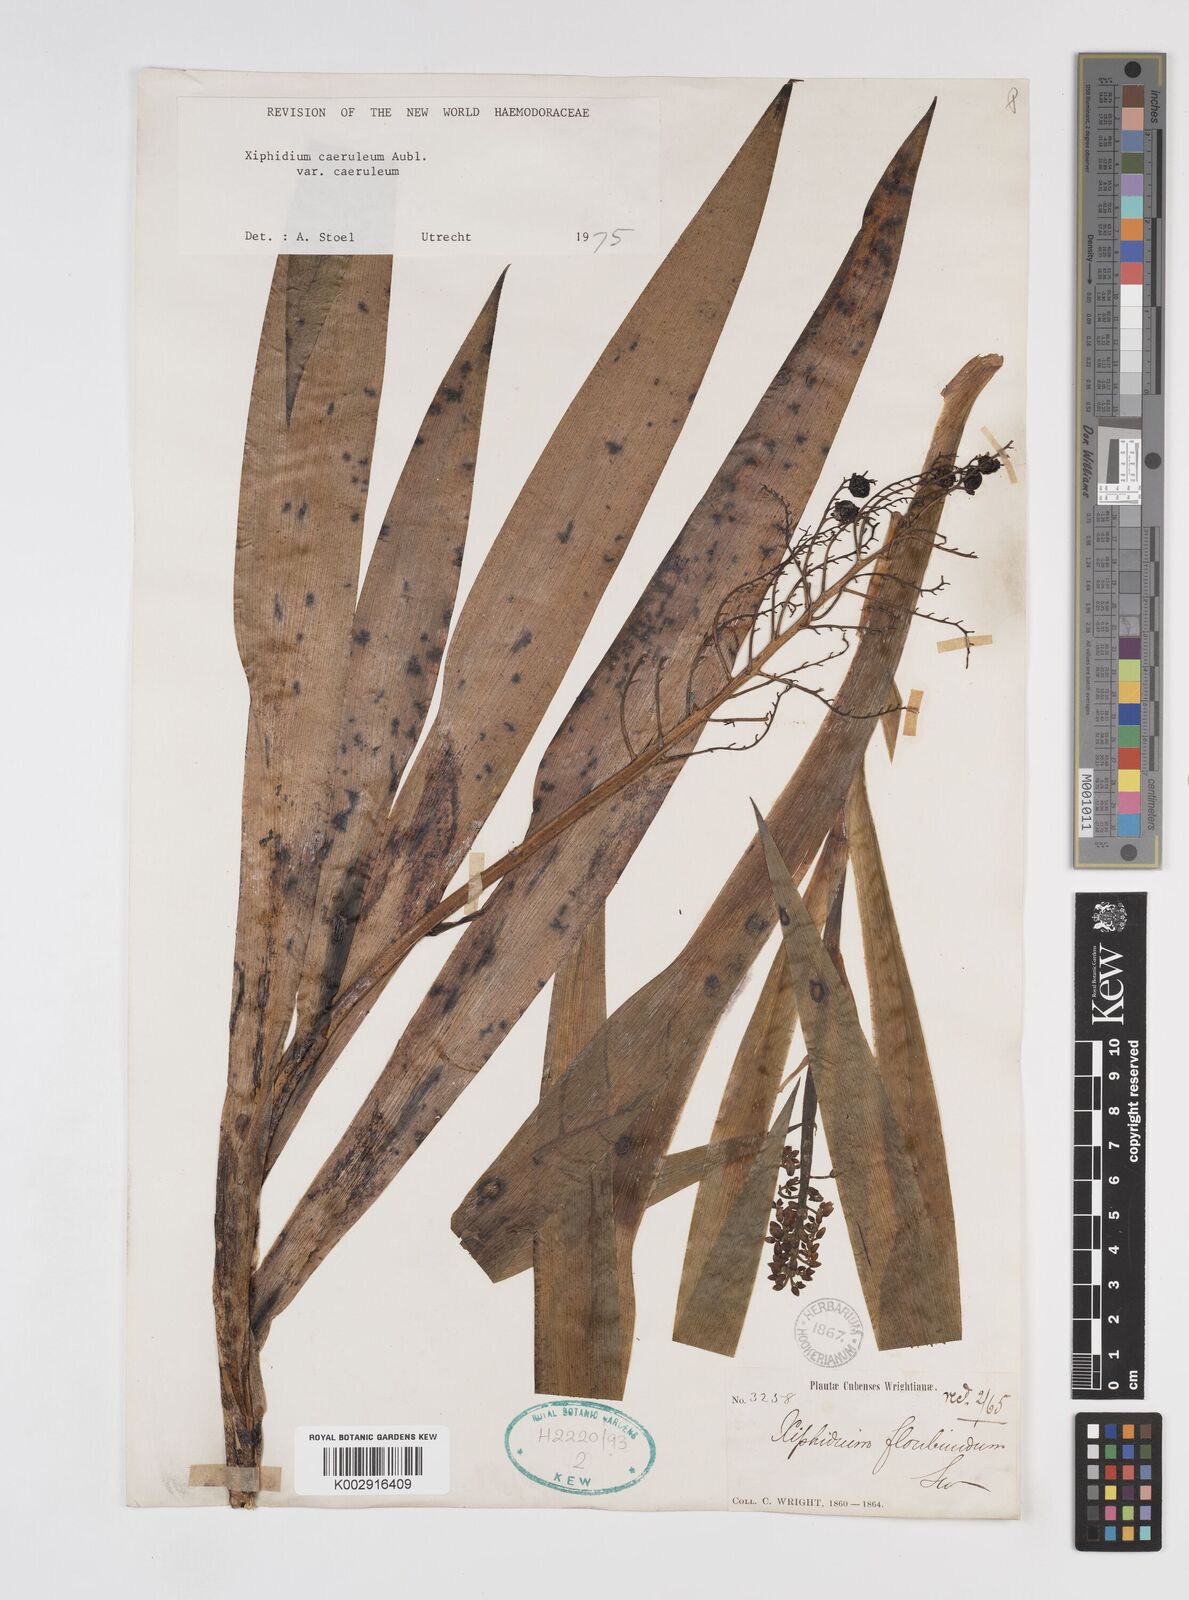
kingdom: Plantae
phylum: Tracheophyta
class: Liliopsida
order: Commelinales
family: Haemodoraceae
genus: Xiphidium
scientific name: Xiphidium caeruleum
